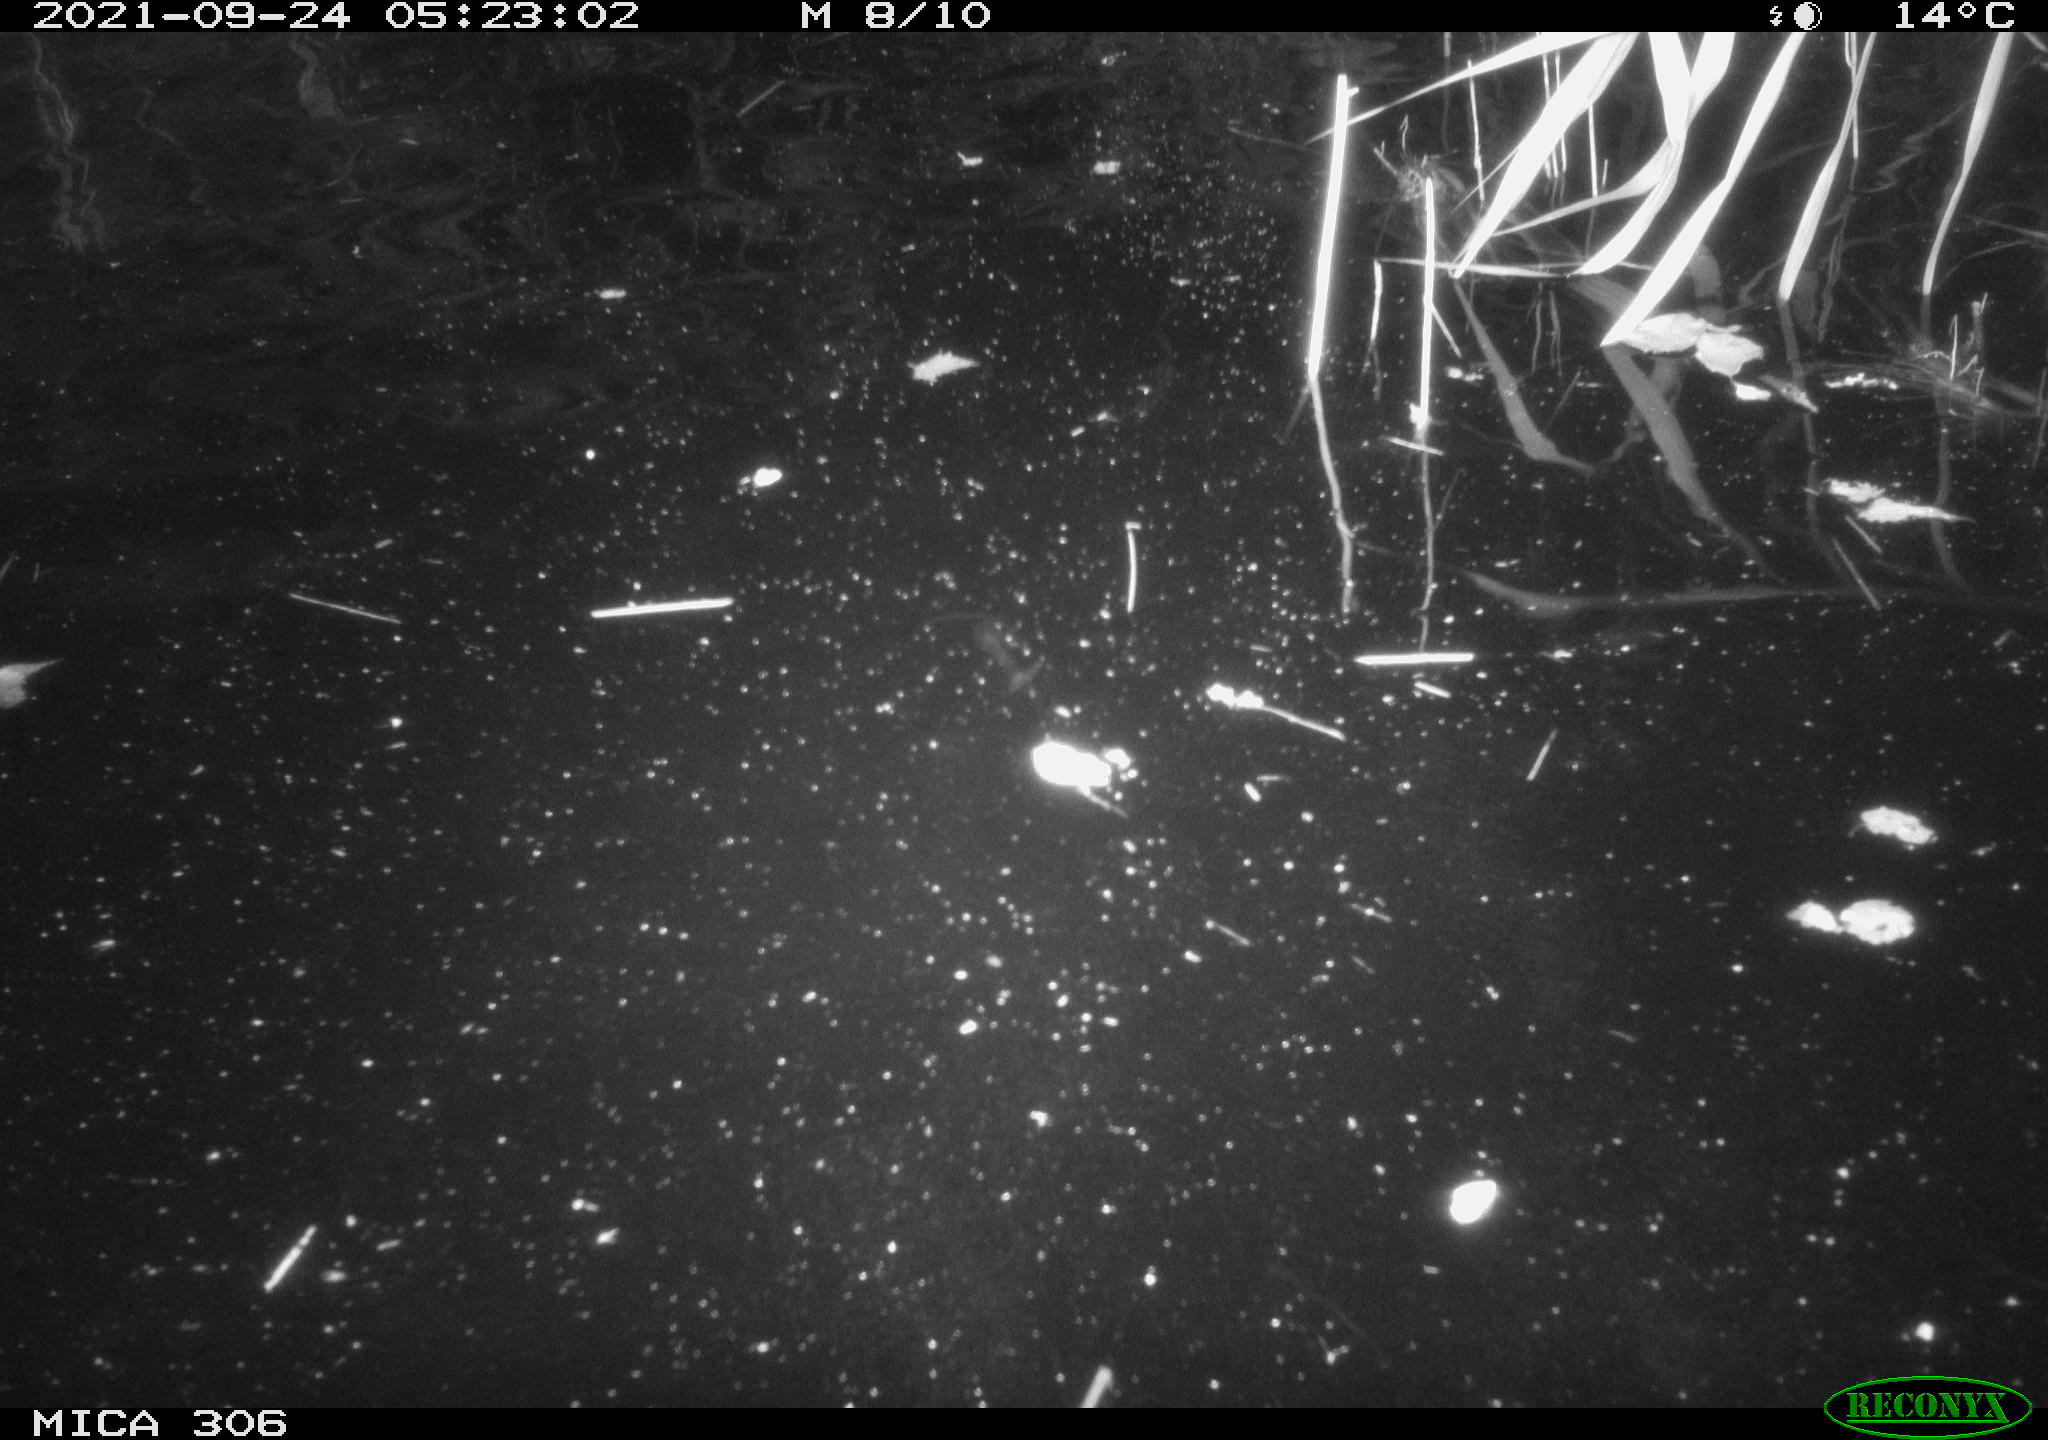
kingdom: Animalia
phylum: Chordata
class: Mammalia
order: Rodentia
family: Cricetidae
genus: Ondatra
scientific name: Ondatra zibethicus
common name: Muskrat
